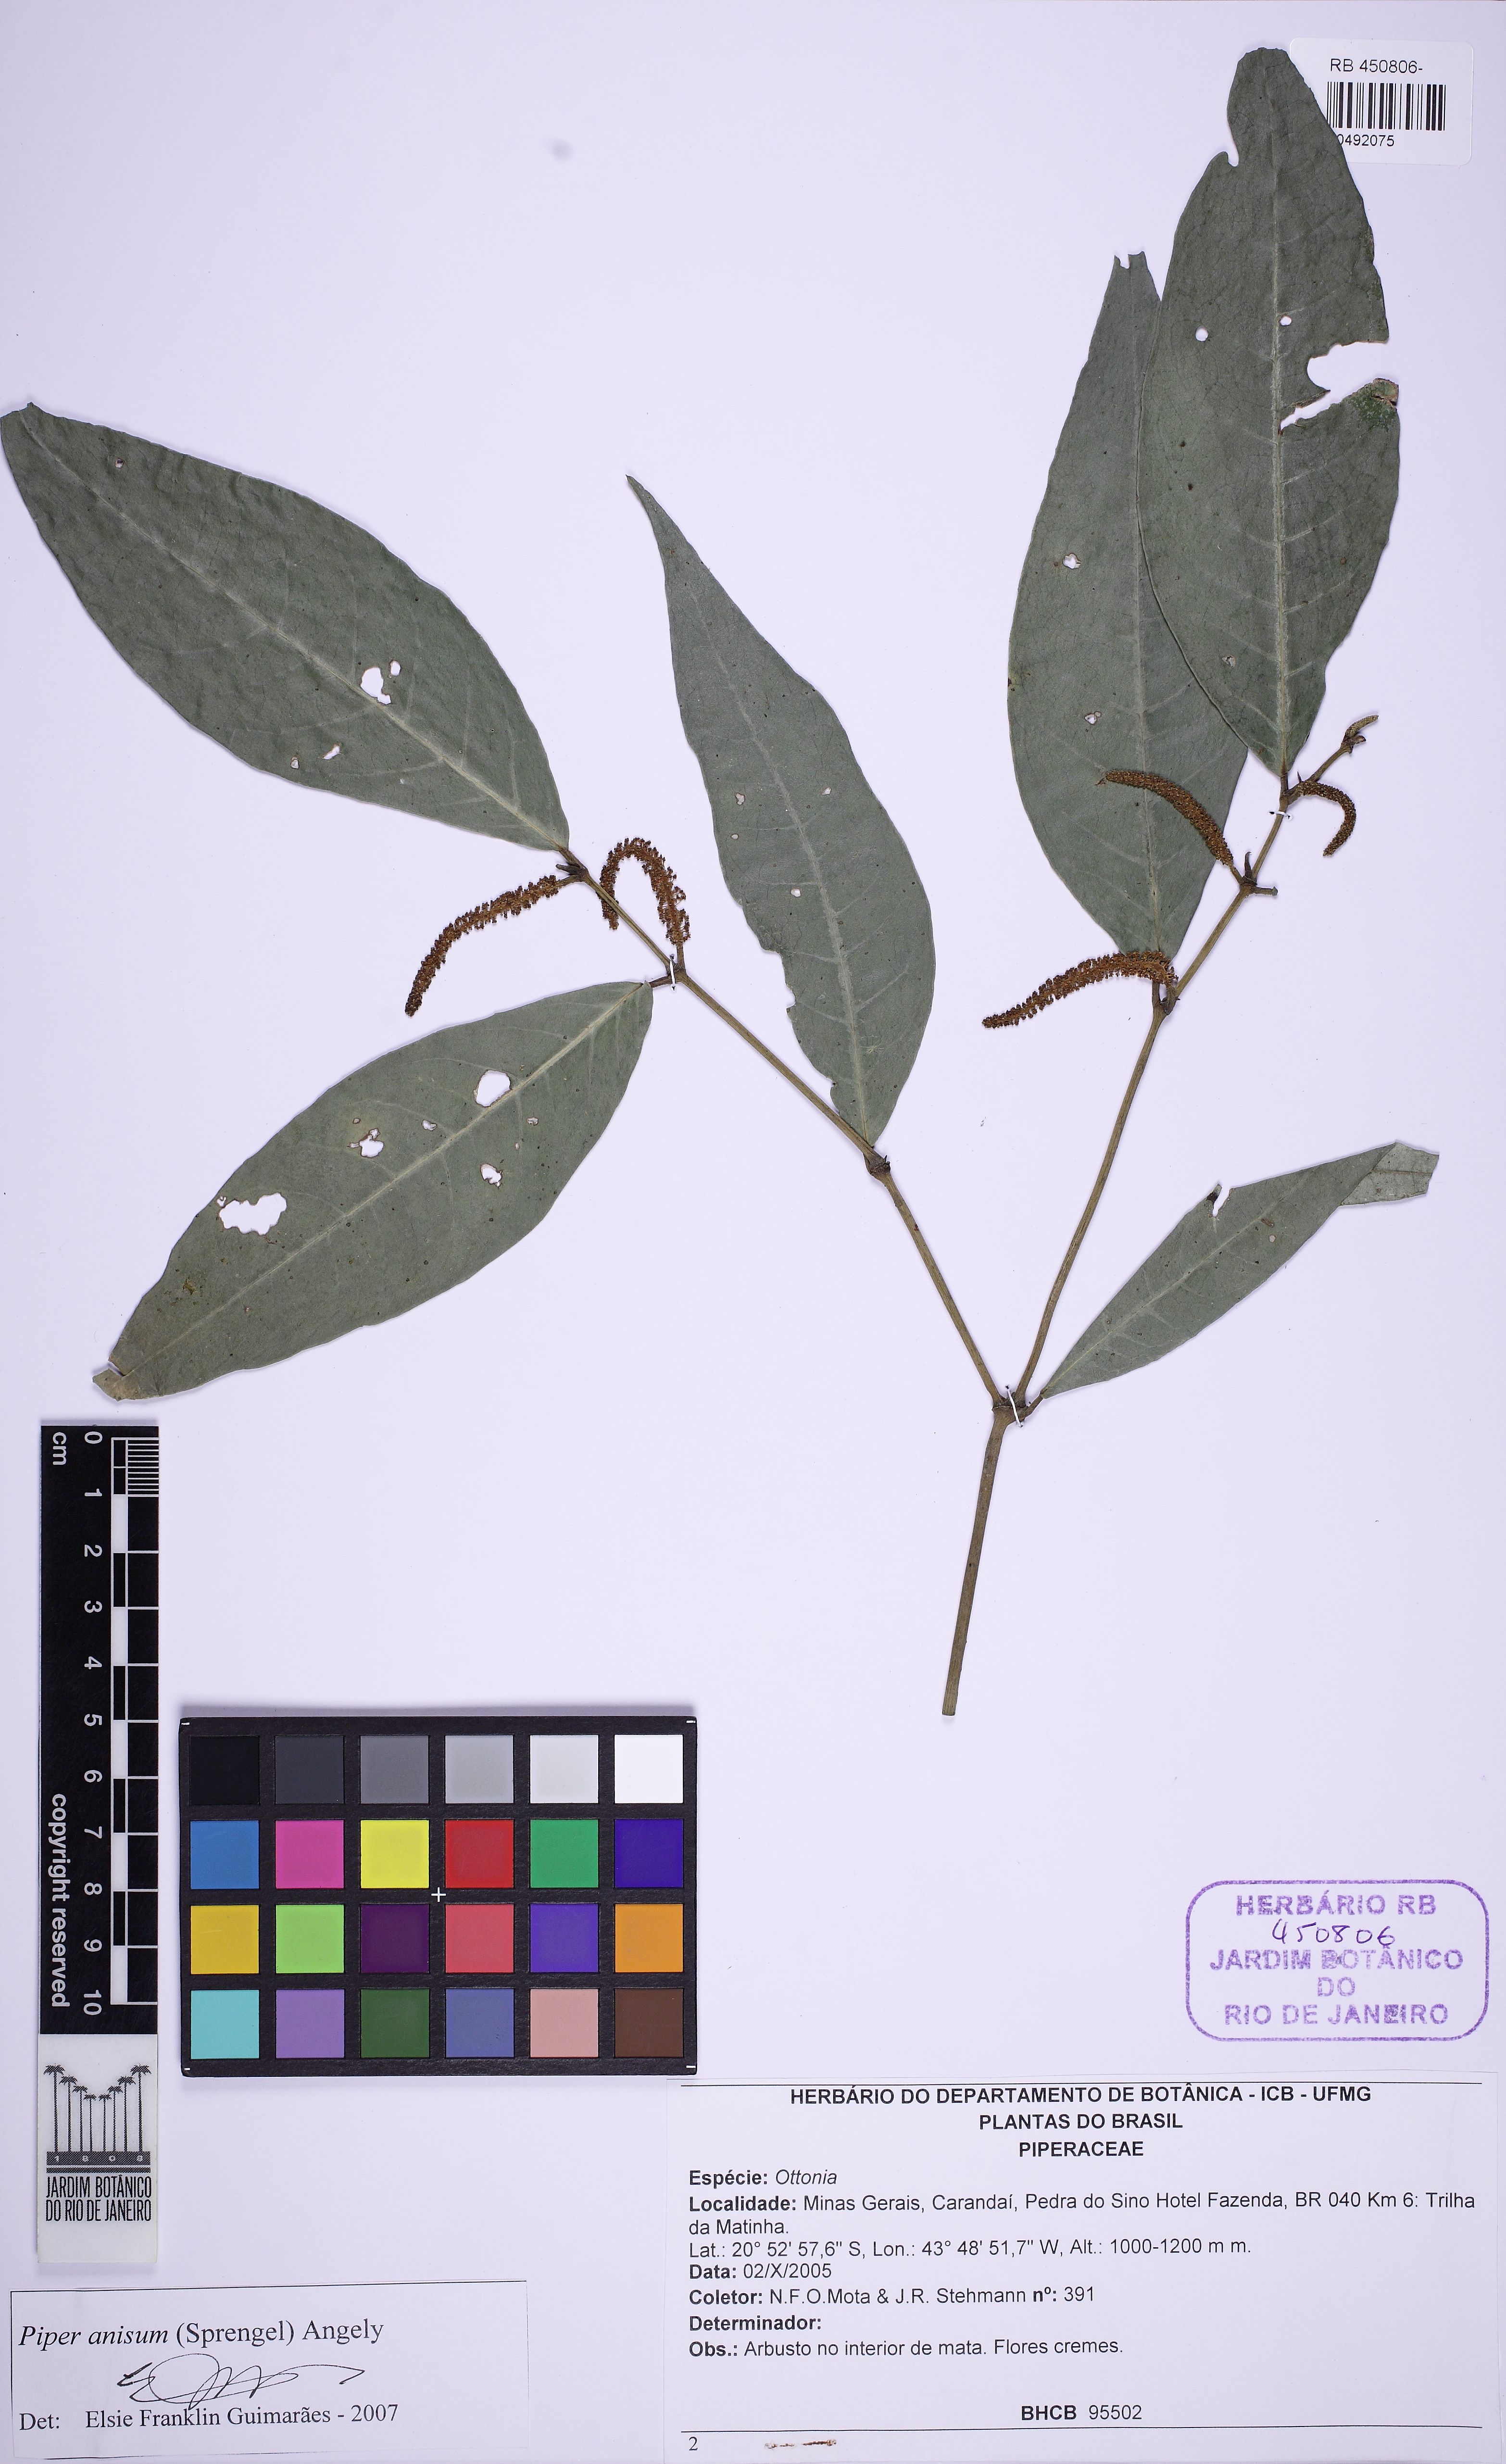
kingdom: Plantae
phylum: Tracheophyta
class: Magnoliopsida
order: Piperales
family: Piperaceae
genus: Piper
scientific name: Piper anisum
